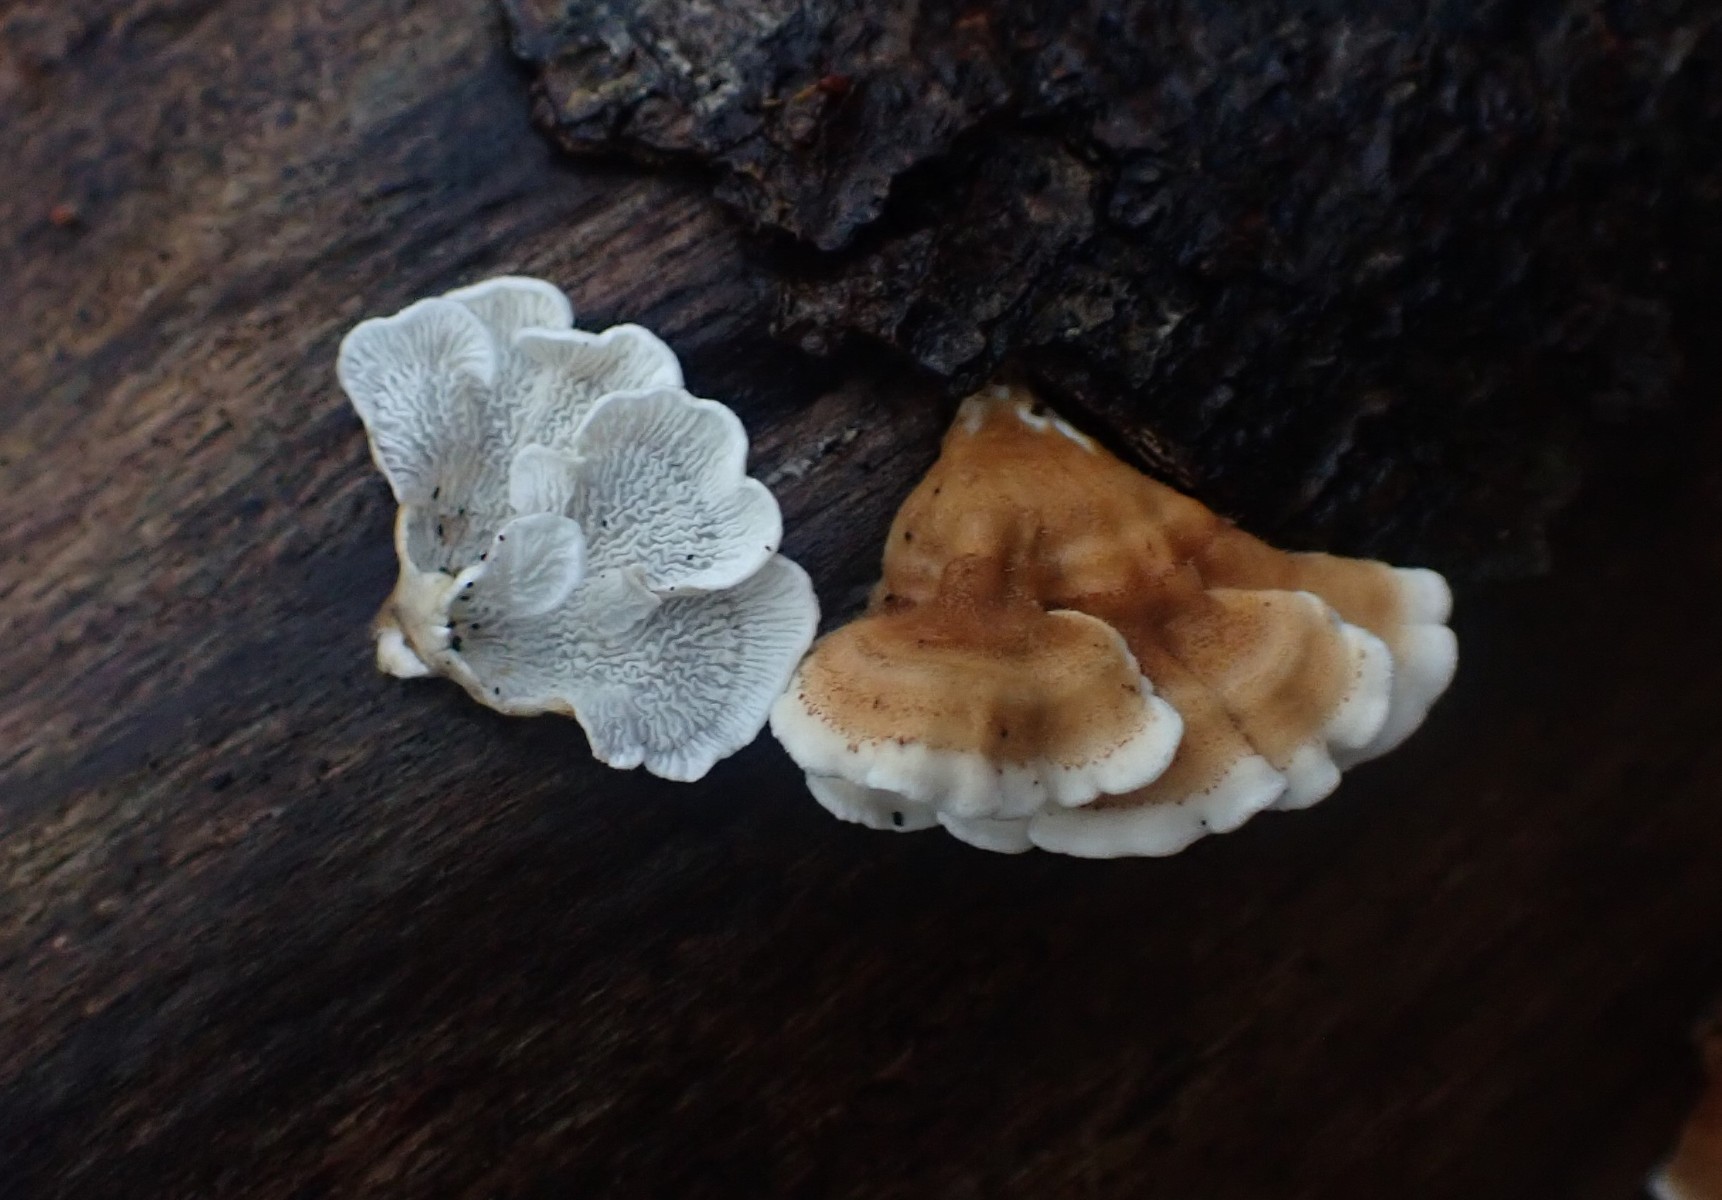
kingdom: Fungi
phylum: Basidiomycota
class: Agaricomycetes
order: Amylocorticiales
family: Amylocorticiaceae
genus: Plicaturopsis
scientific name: Plicaturopsis crispa
